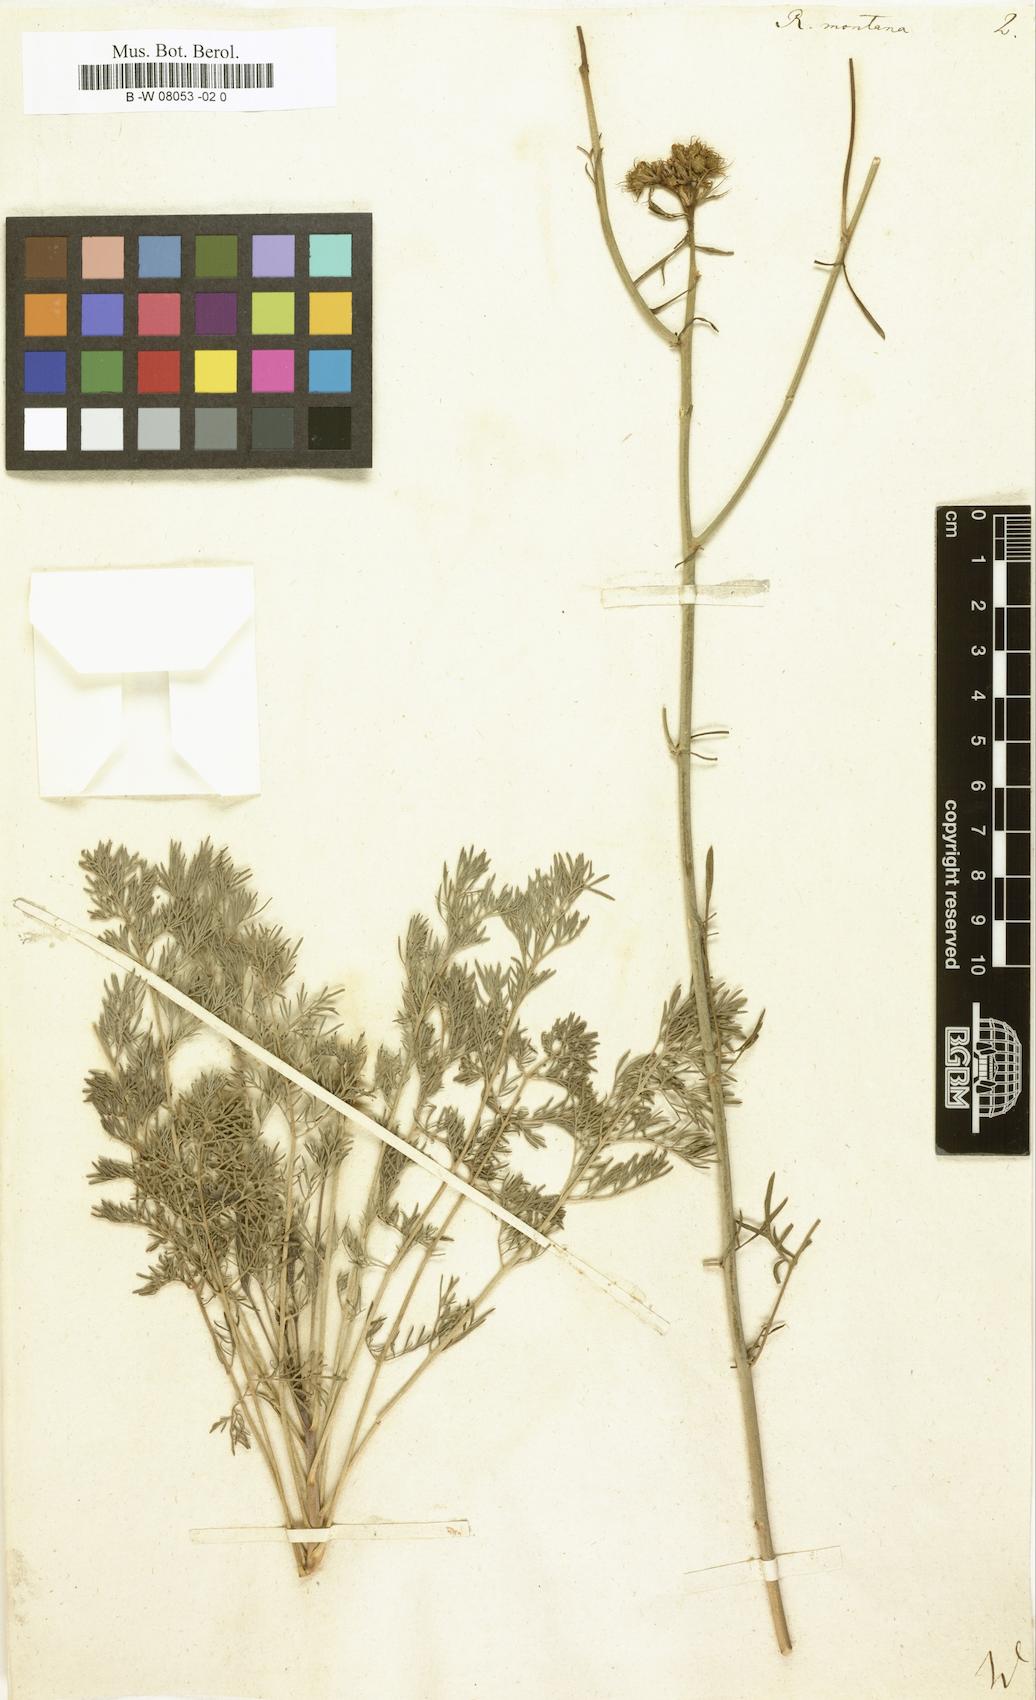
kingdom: Plantae
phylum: Tracheophyta
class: Magnoliopsida
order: Sapindales
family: Rutaceae
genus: Ruta
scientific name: Ruta montana
